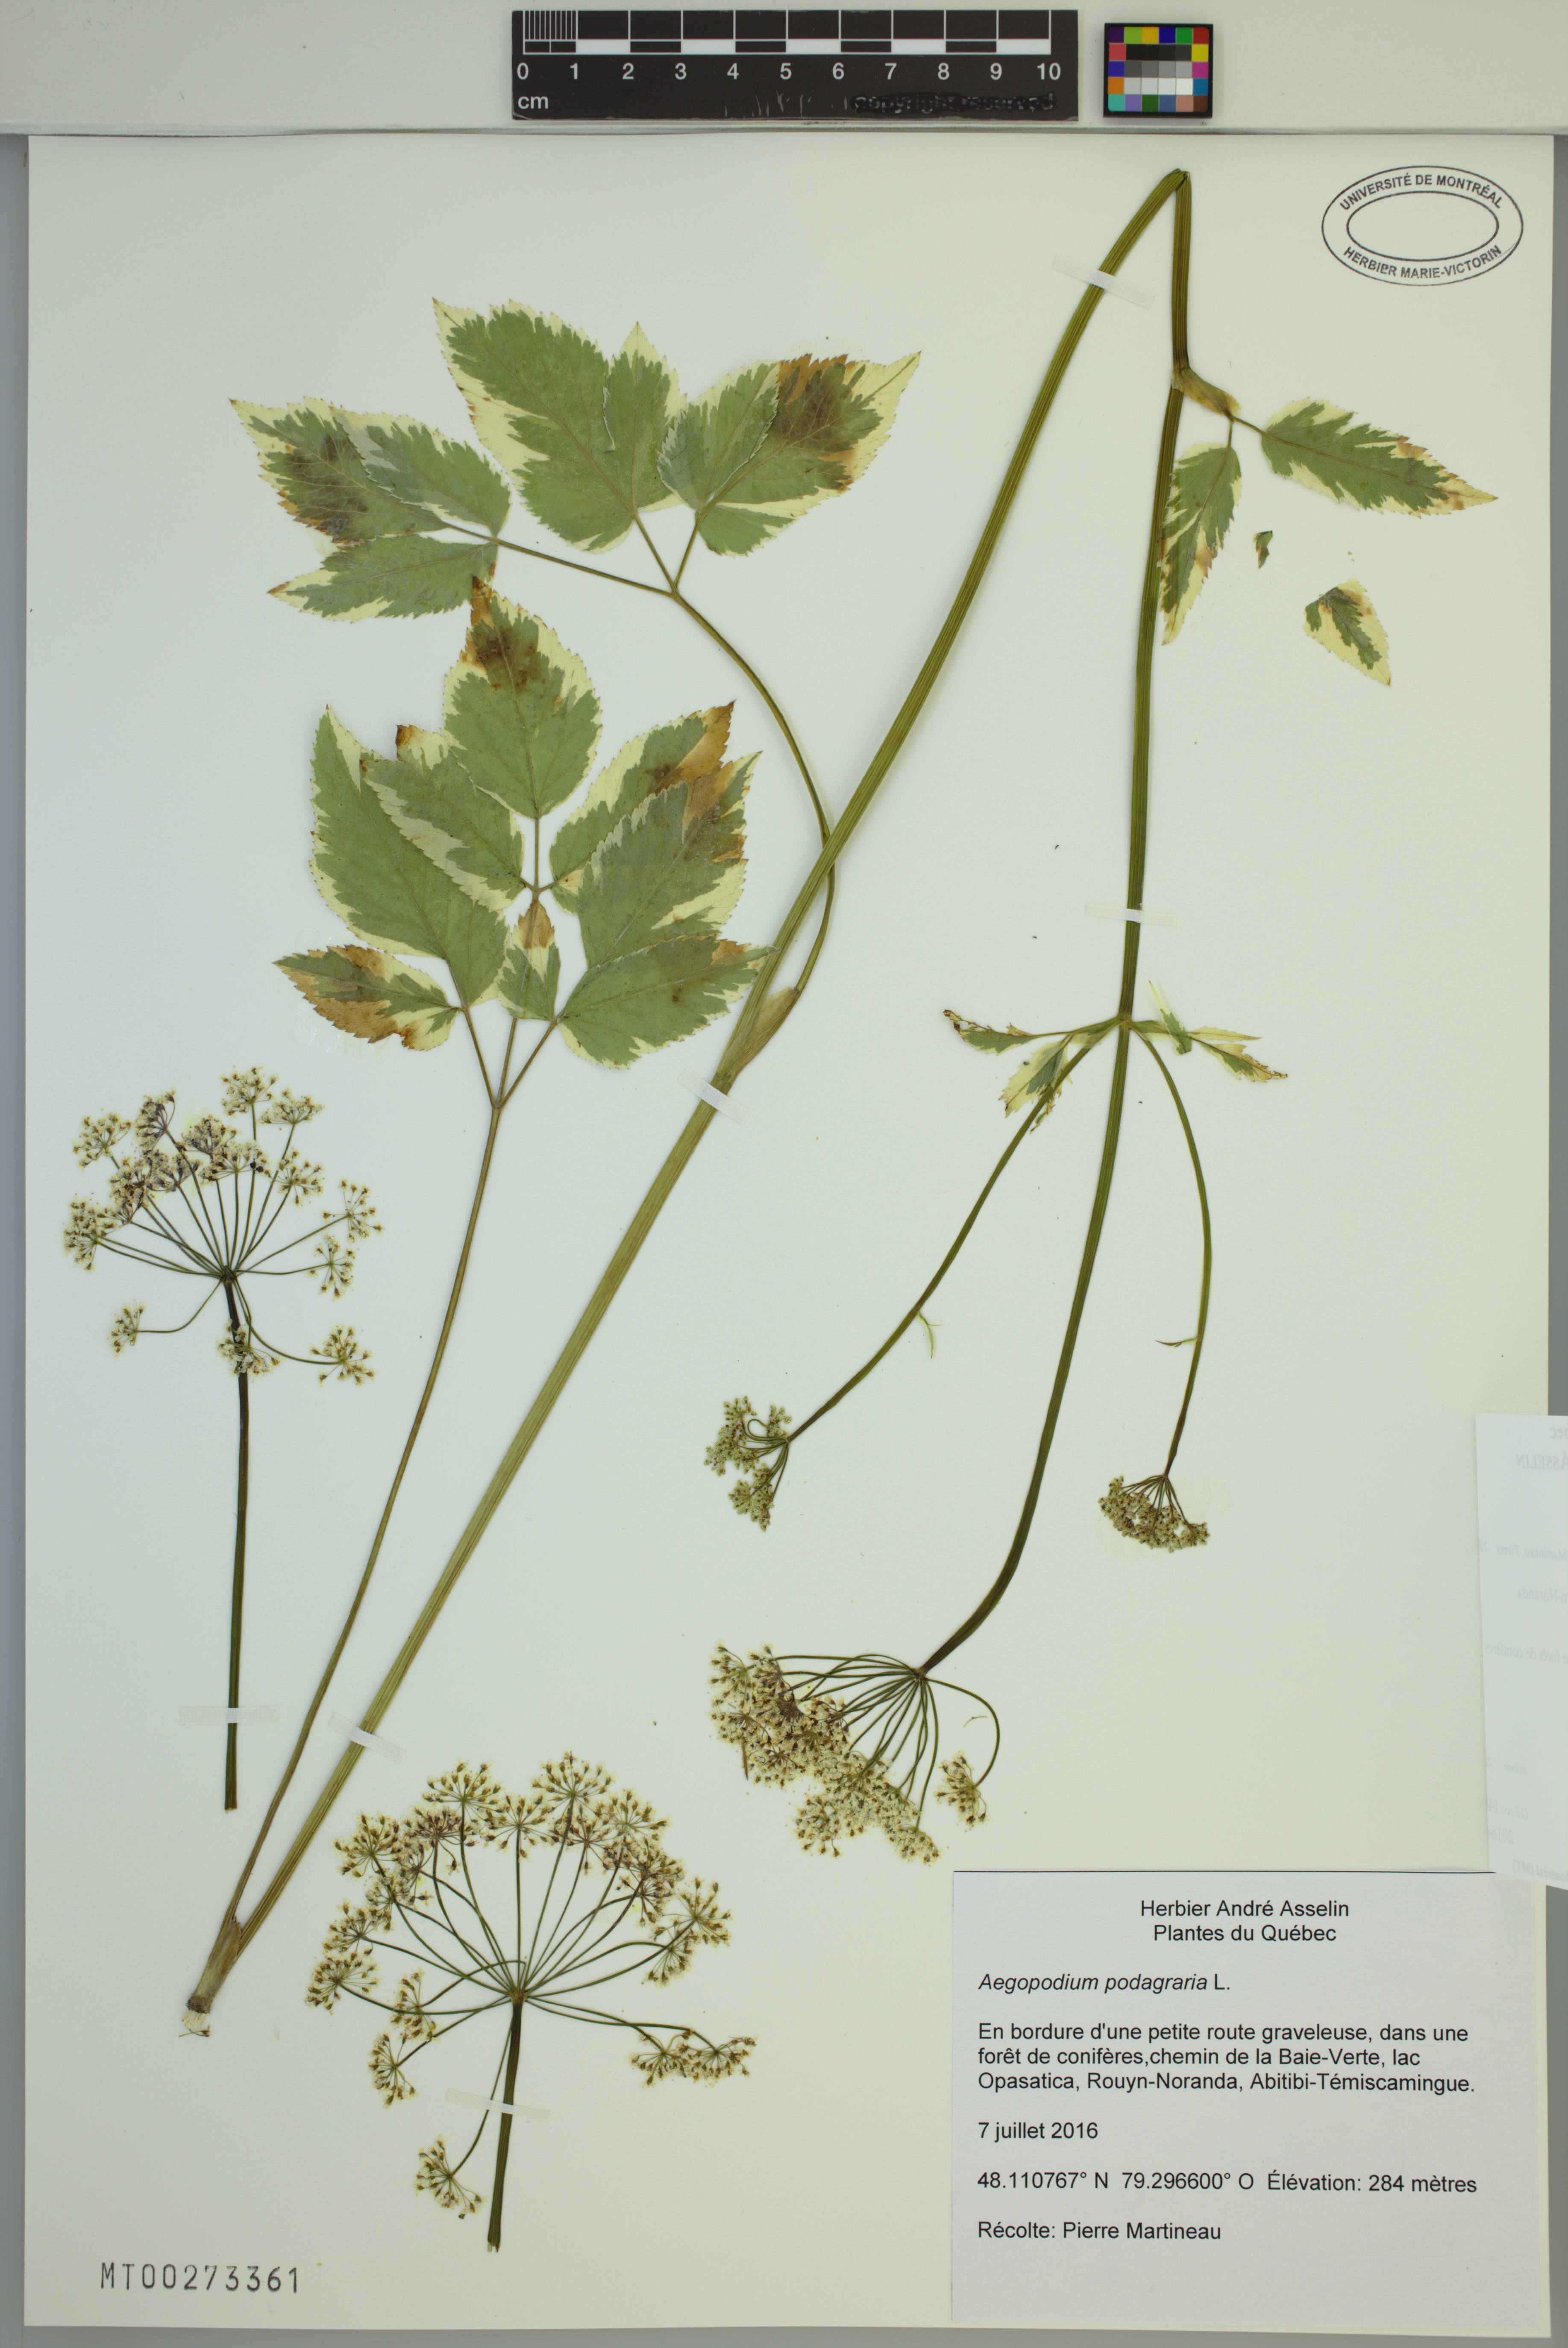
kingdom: Plantae
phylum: Tracheophyta
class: Magnoliopsida
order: Apiales
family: Apiaceae
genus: Aegopodium
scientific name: Aegopodium podagraria
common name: Ground-elder
